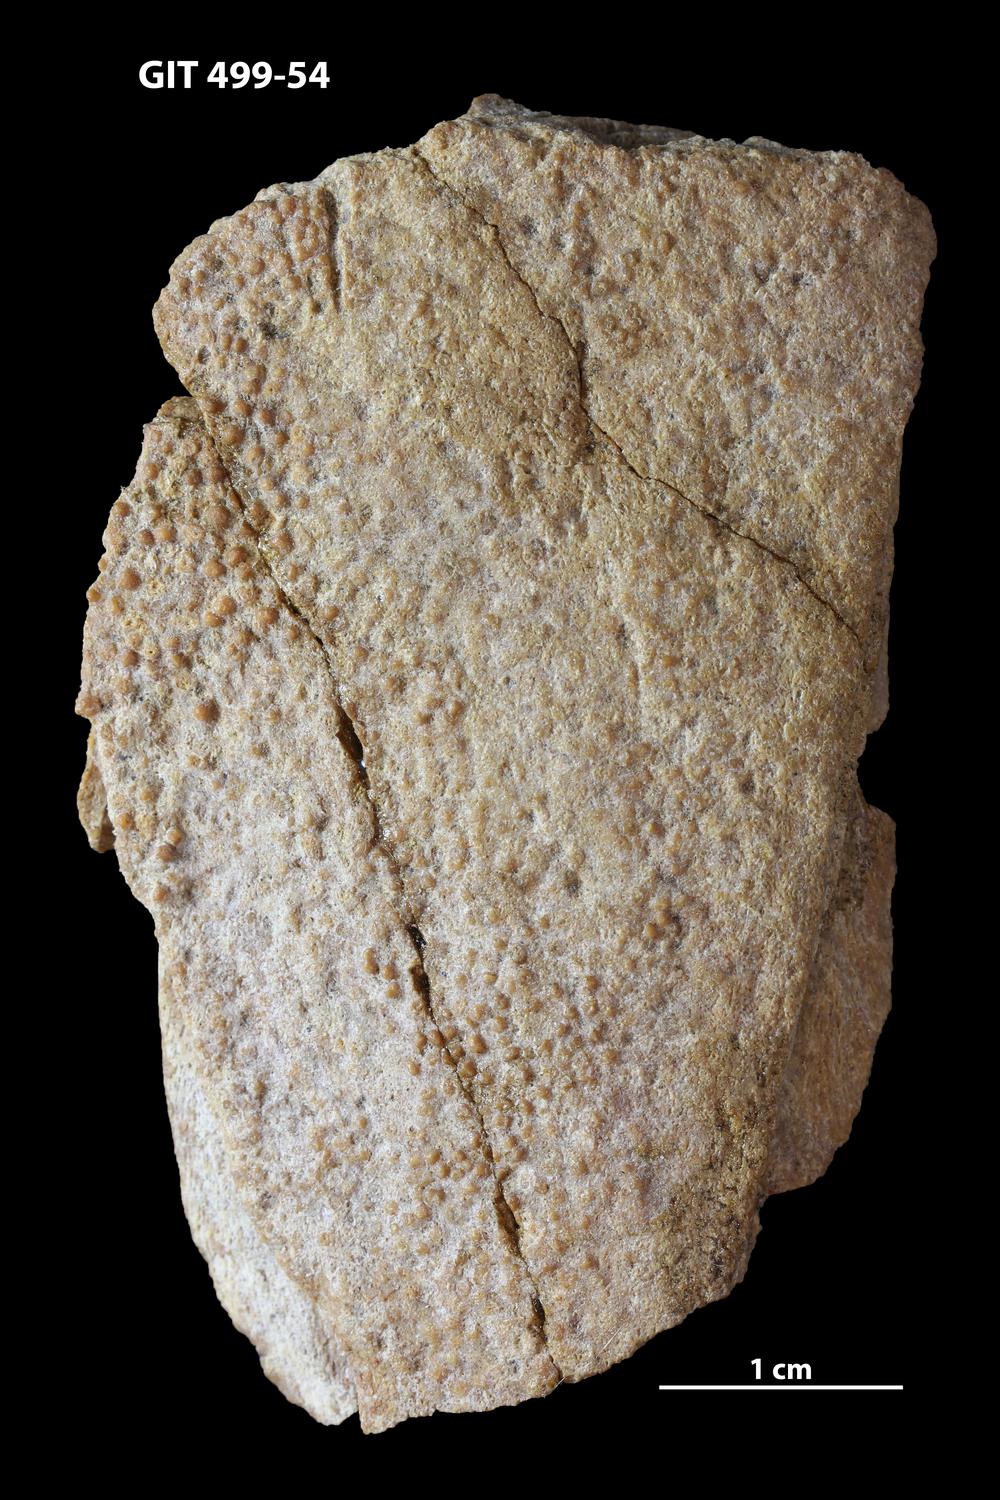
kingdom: Animalia
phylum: Chordata
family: Holoptychiidae
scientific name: Holoptychiidae
